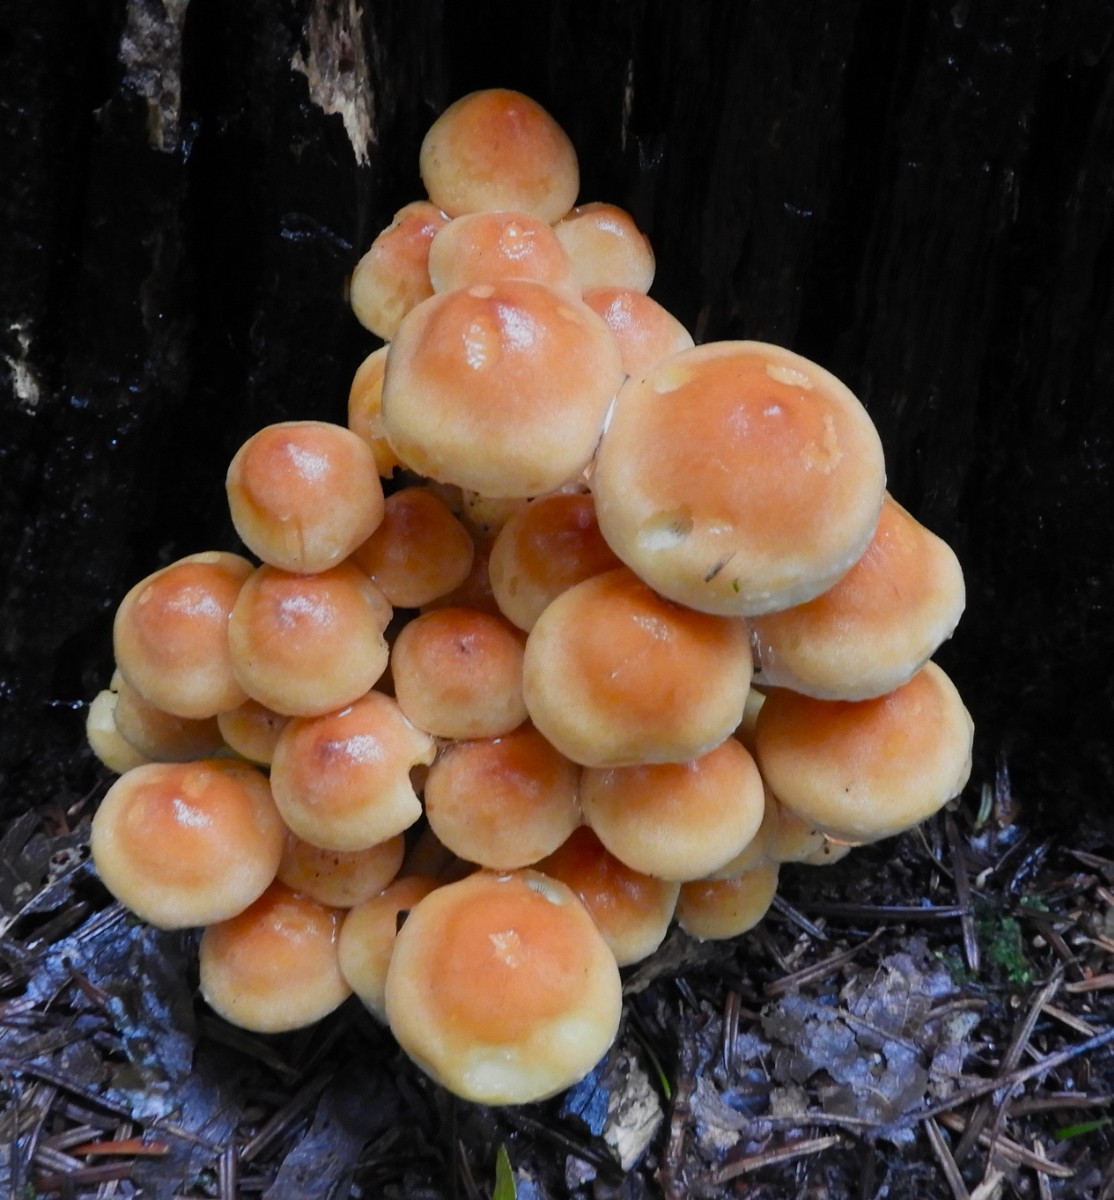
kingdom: Fungi
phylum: Basidiomycota
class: Agaricomycetes
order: Agaricales
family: Strophariaceae
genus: Hypholoma
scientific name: Hypholoma fasciculare
